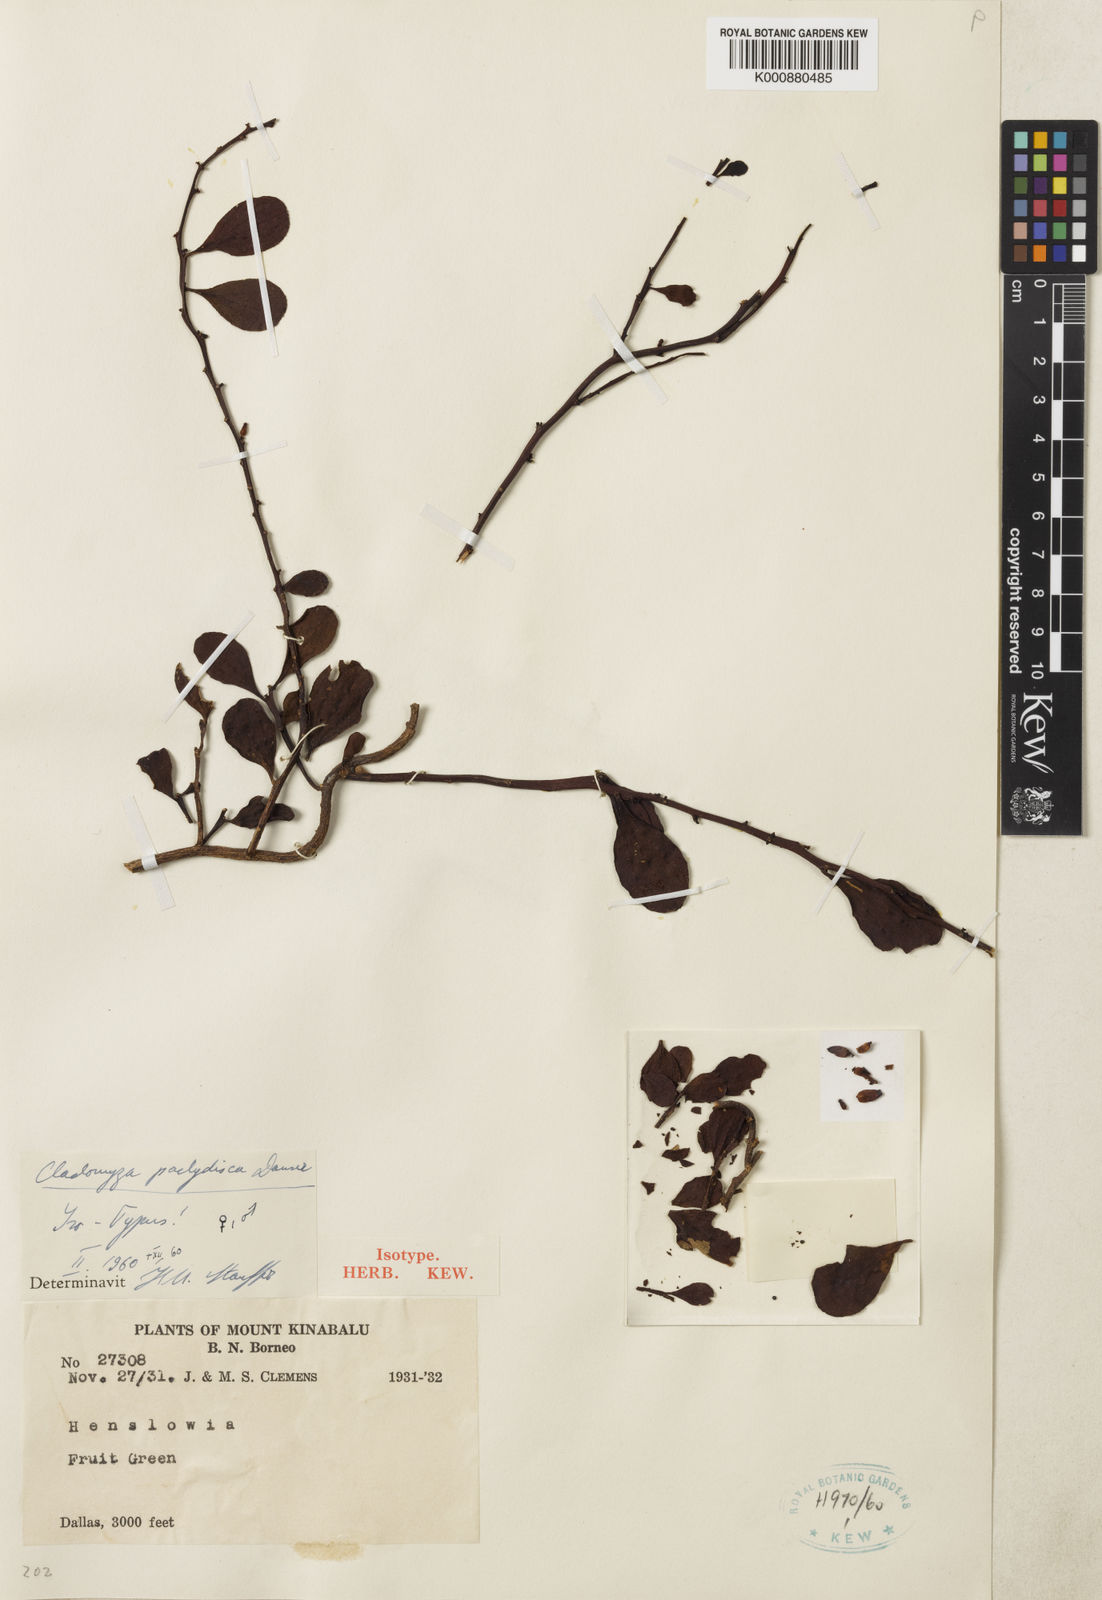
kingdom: Plantae
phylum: Tracheophyta
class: Magnoliopsida
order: Santalales
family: Amphorogynaceae
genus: Dendromyza
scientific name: Dendromyza pachydisca
